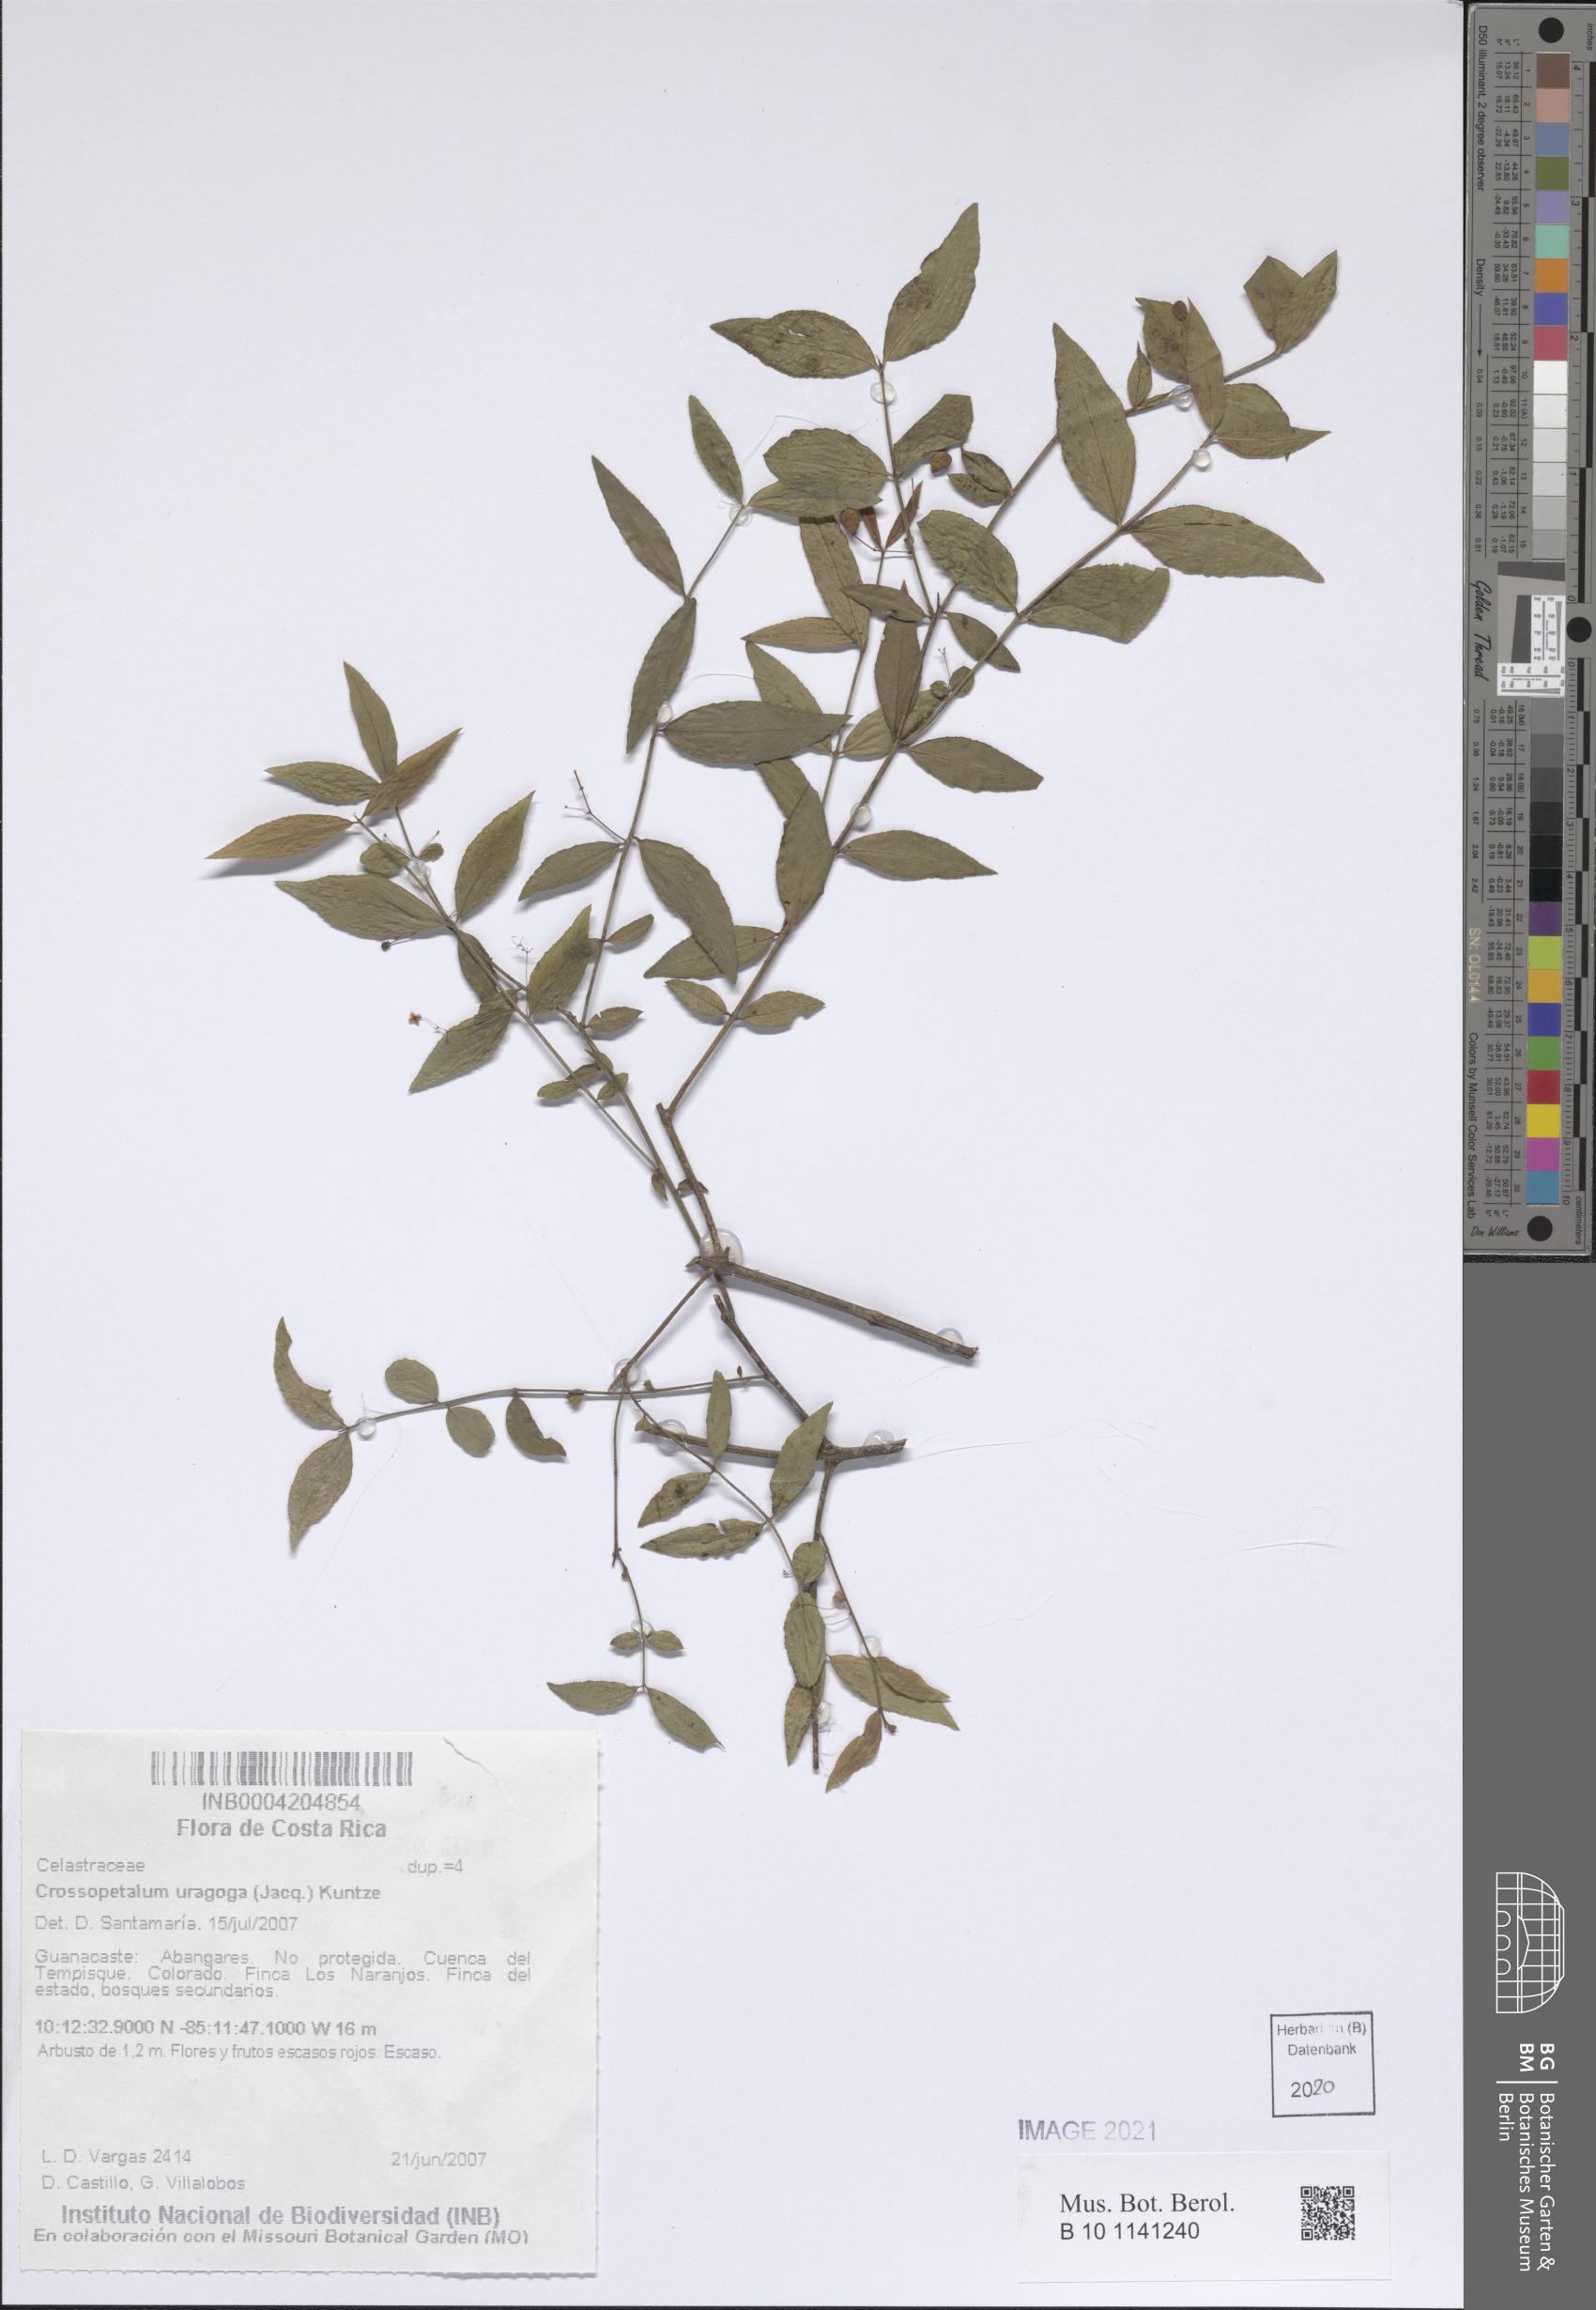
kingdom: Plantae
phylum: Tracheophyta
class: Magnoliopsida
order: Celastrales
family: Celastraceae
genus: Crossopetalum
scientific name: Crossopetalum uragoga
